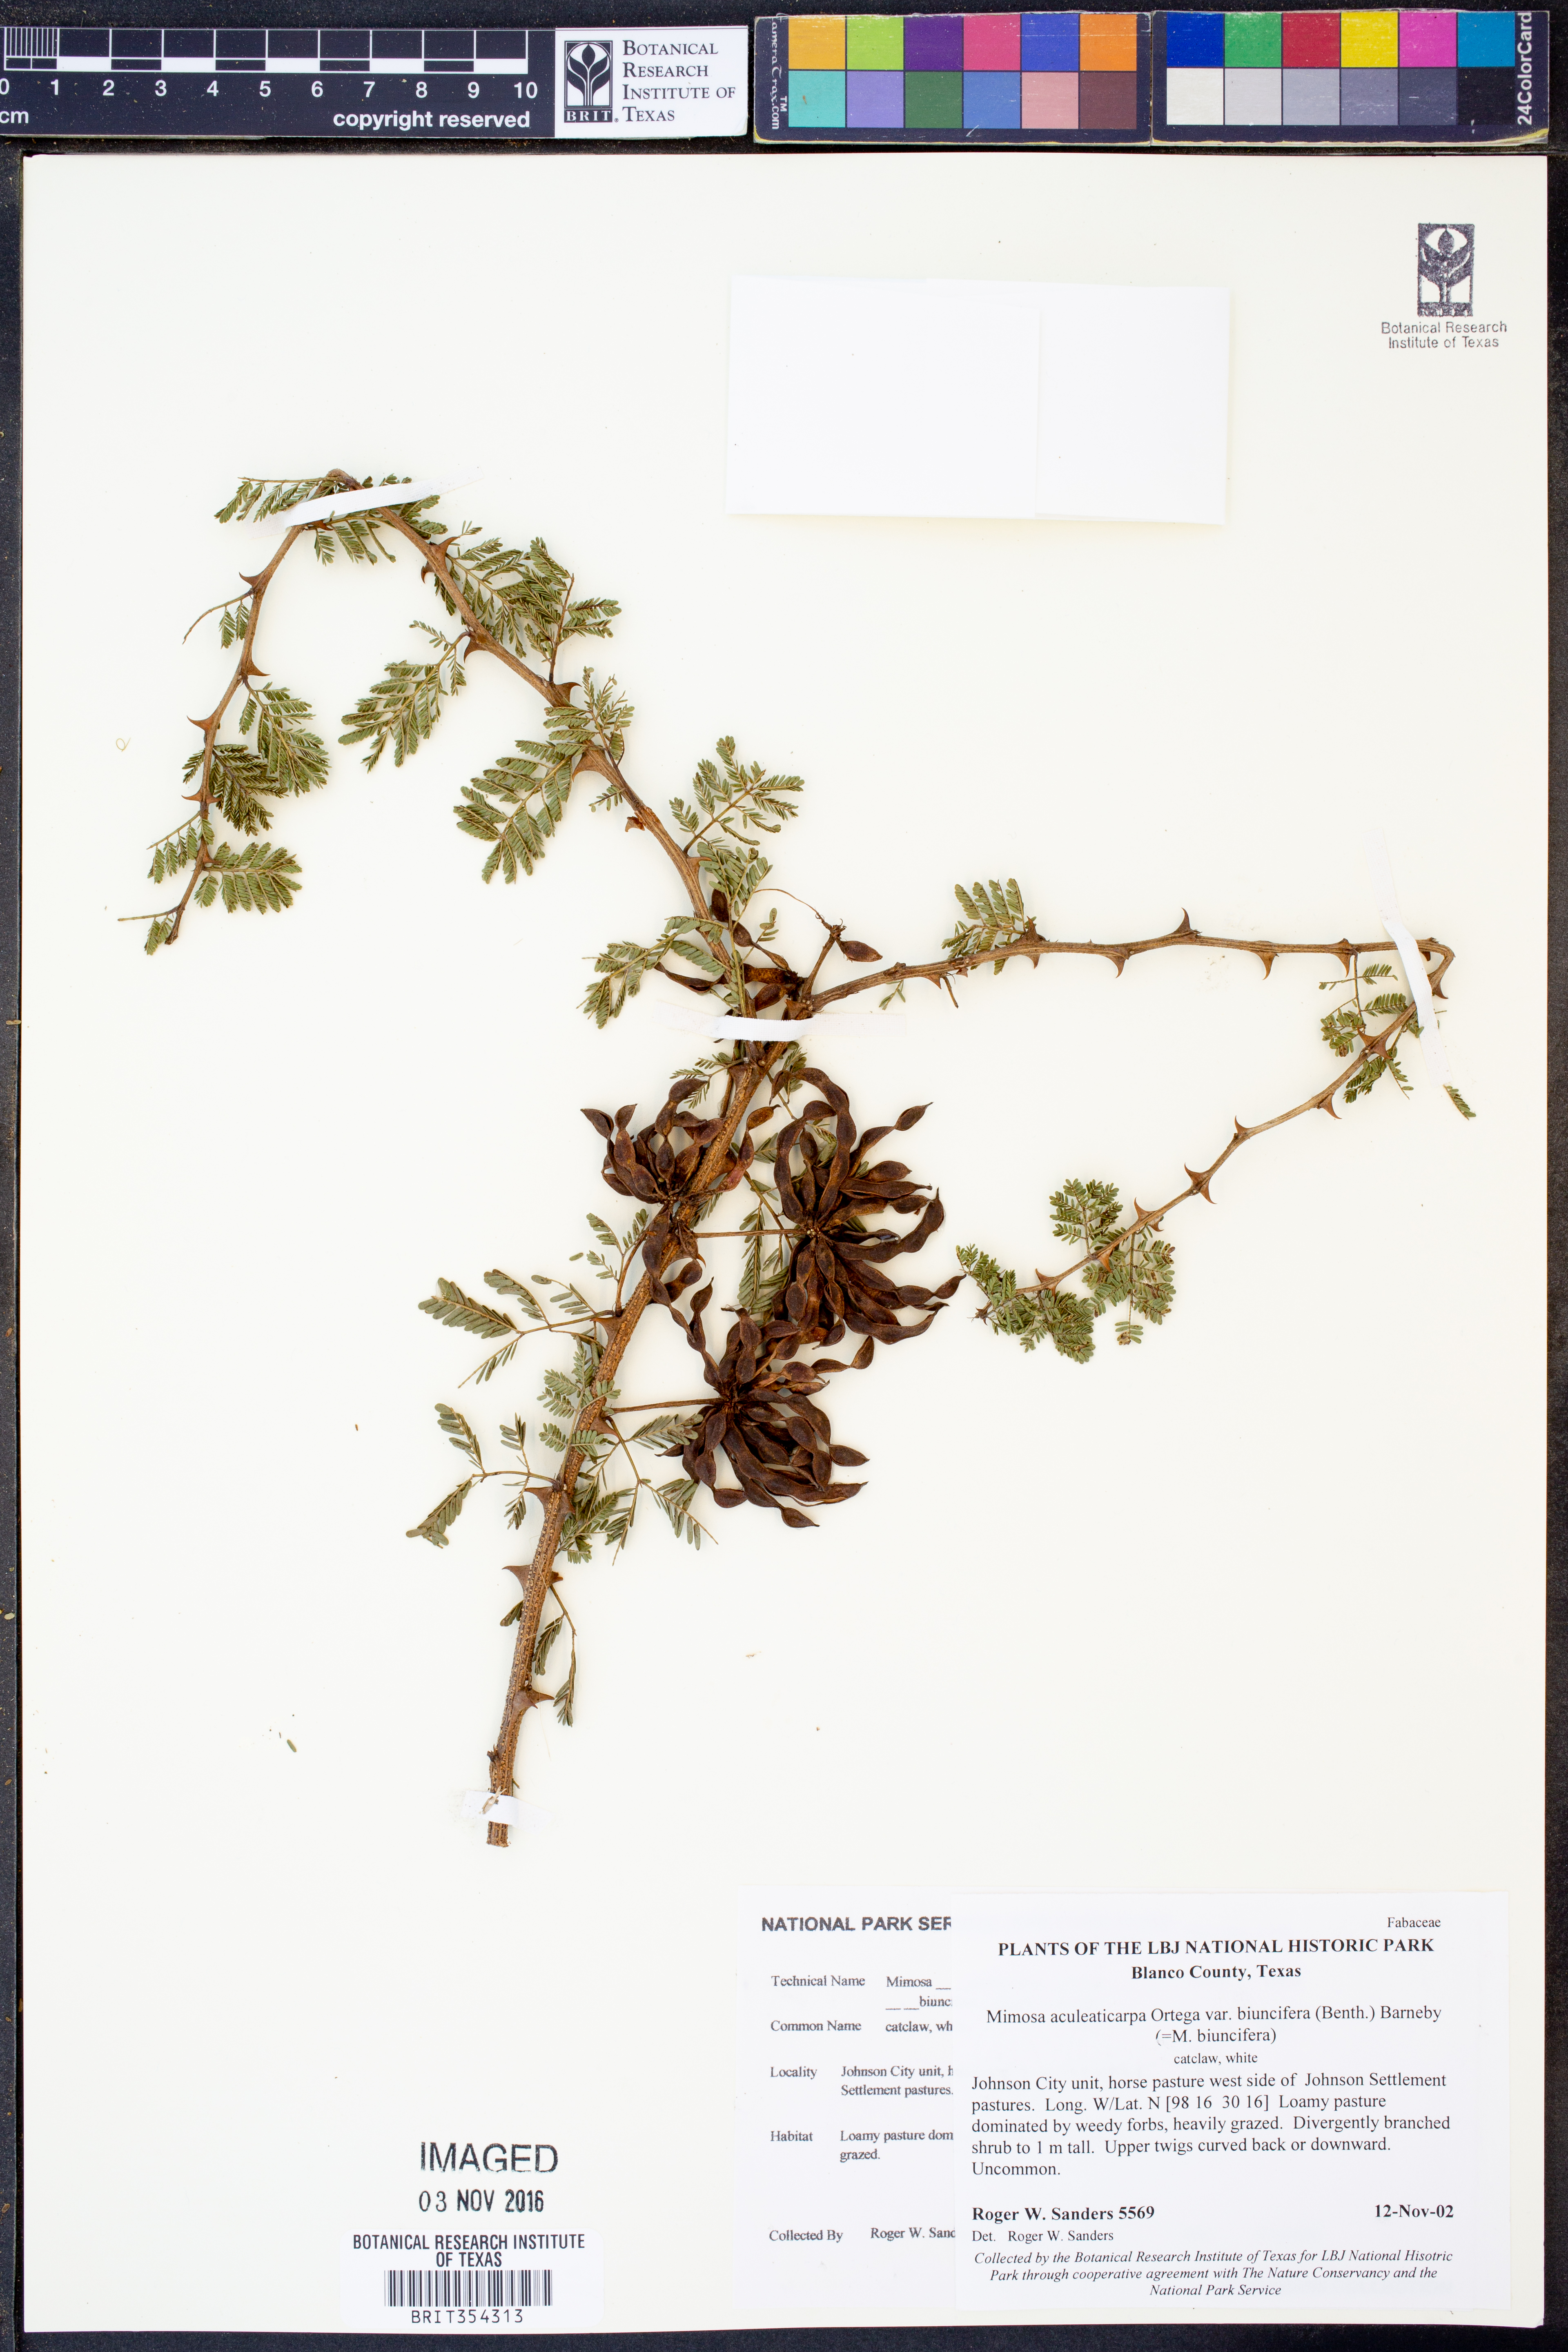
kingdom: Plantae
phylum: Tracheophyta
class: Magnoliopsida
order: Fabales
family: Fabaceae
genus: Mimosa
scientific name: Mimosa biuncifera
